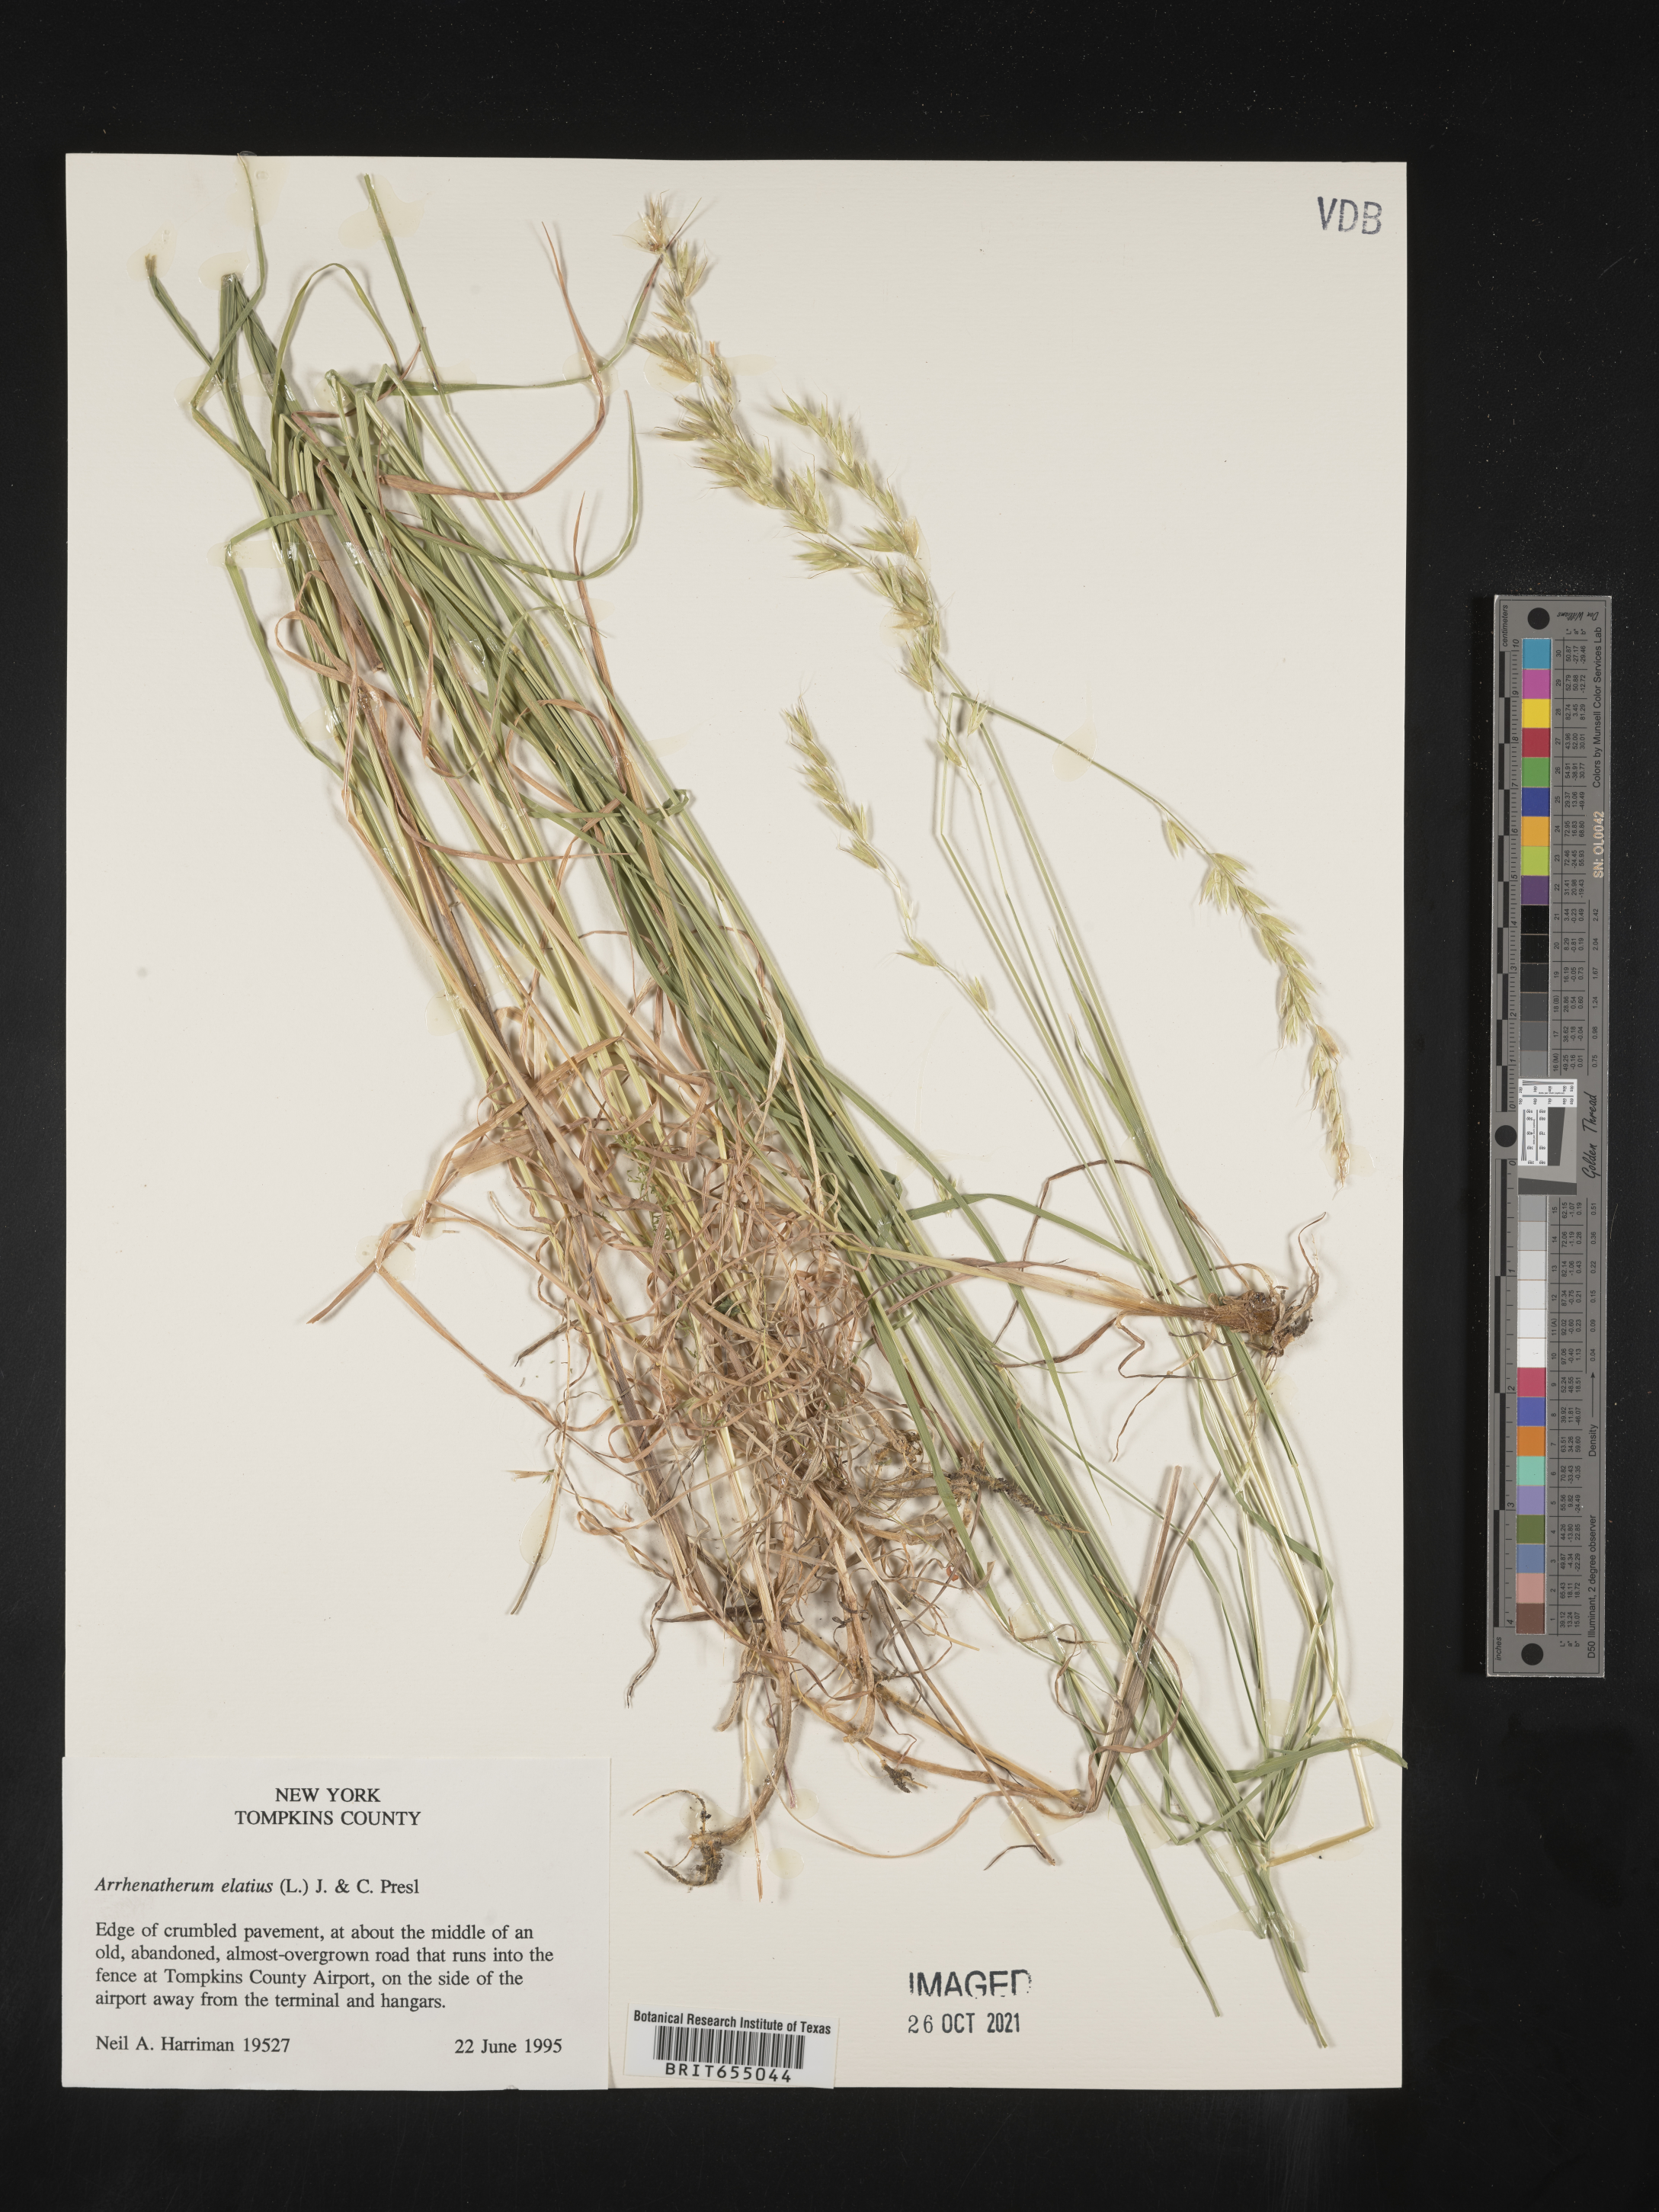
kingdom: Plantae
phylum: Tracheophyta
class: Liliopsida
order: Poales
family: Poaceae
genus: Arrhenatherum
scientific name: Arrhenatherum
